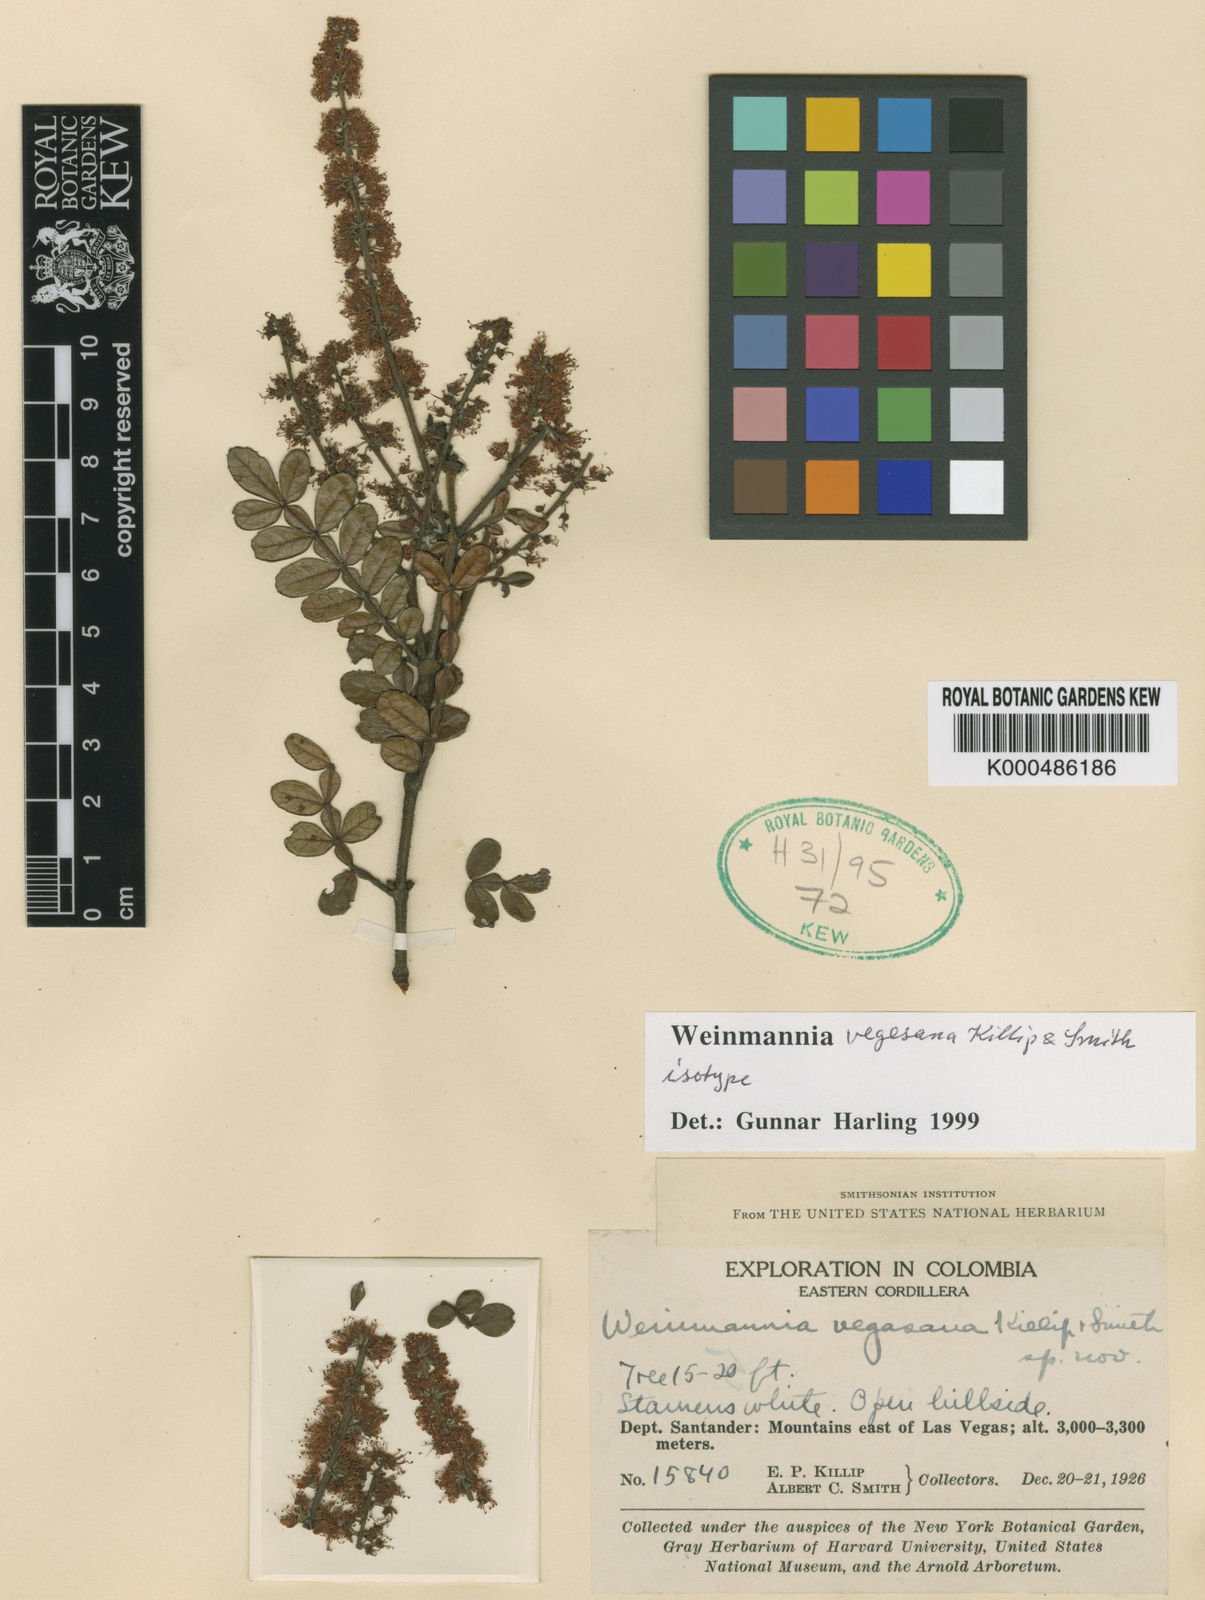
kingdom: Plantae
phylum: Tracheophyta
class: Magnoliopsida
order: Oxalidales
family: Cunoniaceae
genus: Weinmannia
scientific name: Weinmannia vegasana
